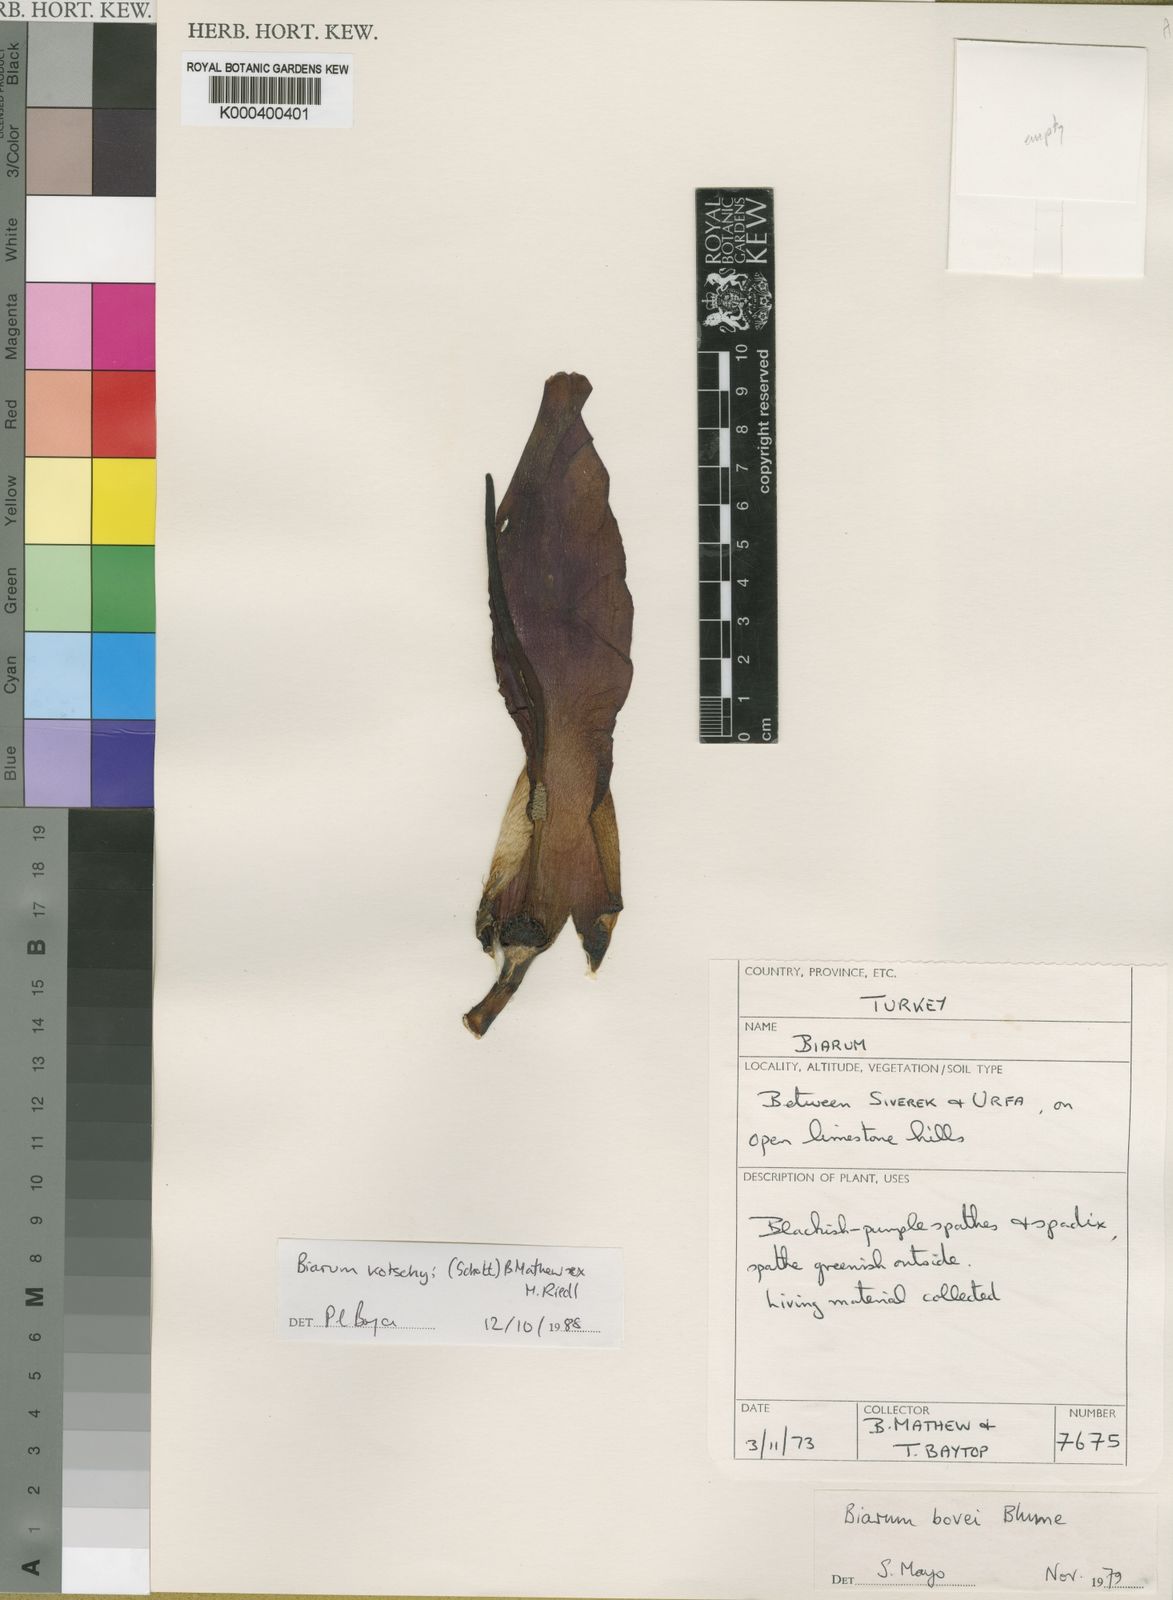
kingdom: Plantae
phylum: Tracheophyta
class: Liliopsida
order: Alismatales
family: Araceae
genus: Biarum
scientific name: Biarum kotschyi
